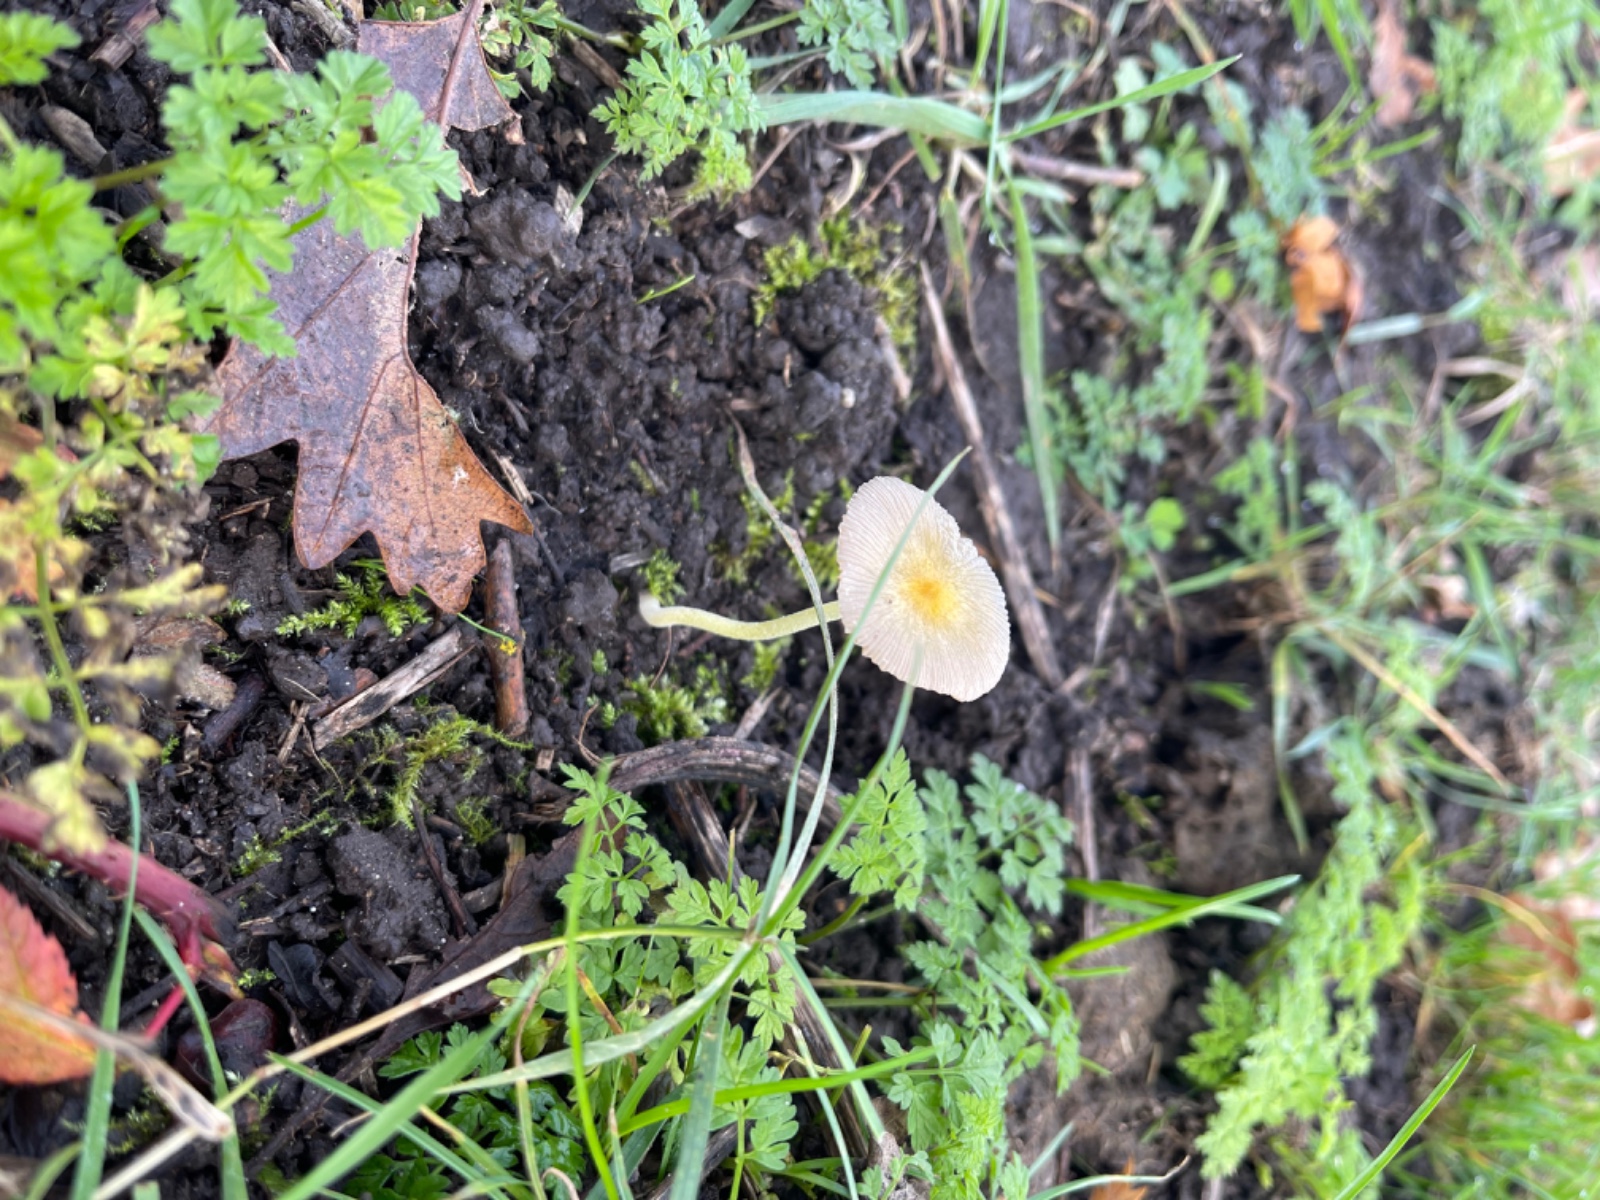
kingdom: Fungi
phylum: Basidiomycota
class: Agaricomycetes
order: Agaricales
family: Bolbitiaceae
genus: Bolbitius
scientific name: Bolbitius titubans
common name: almindelig gulhat
